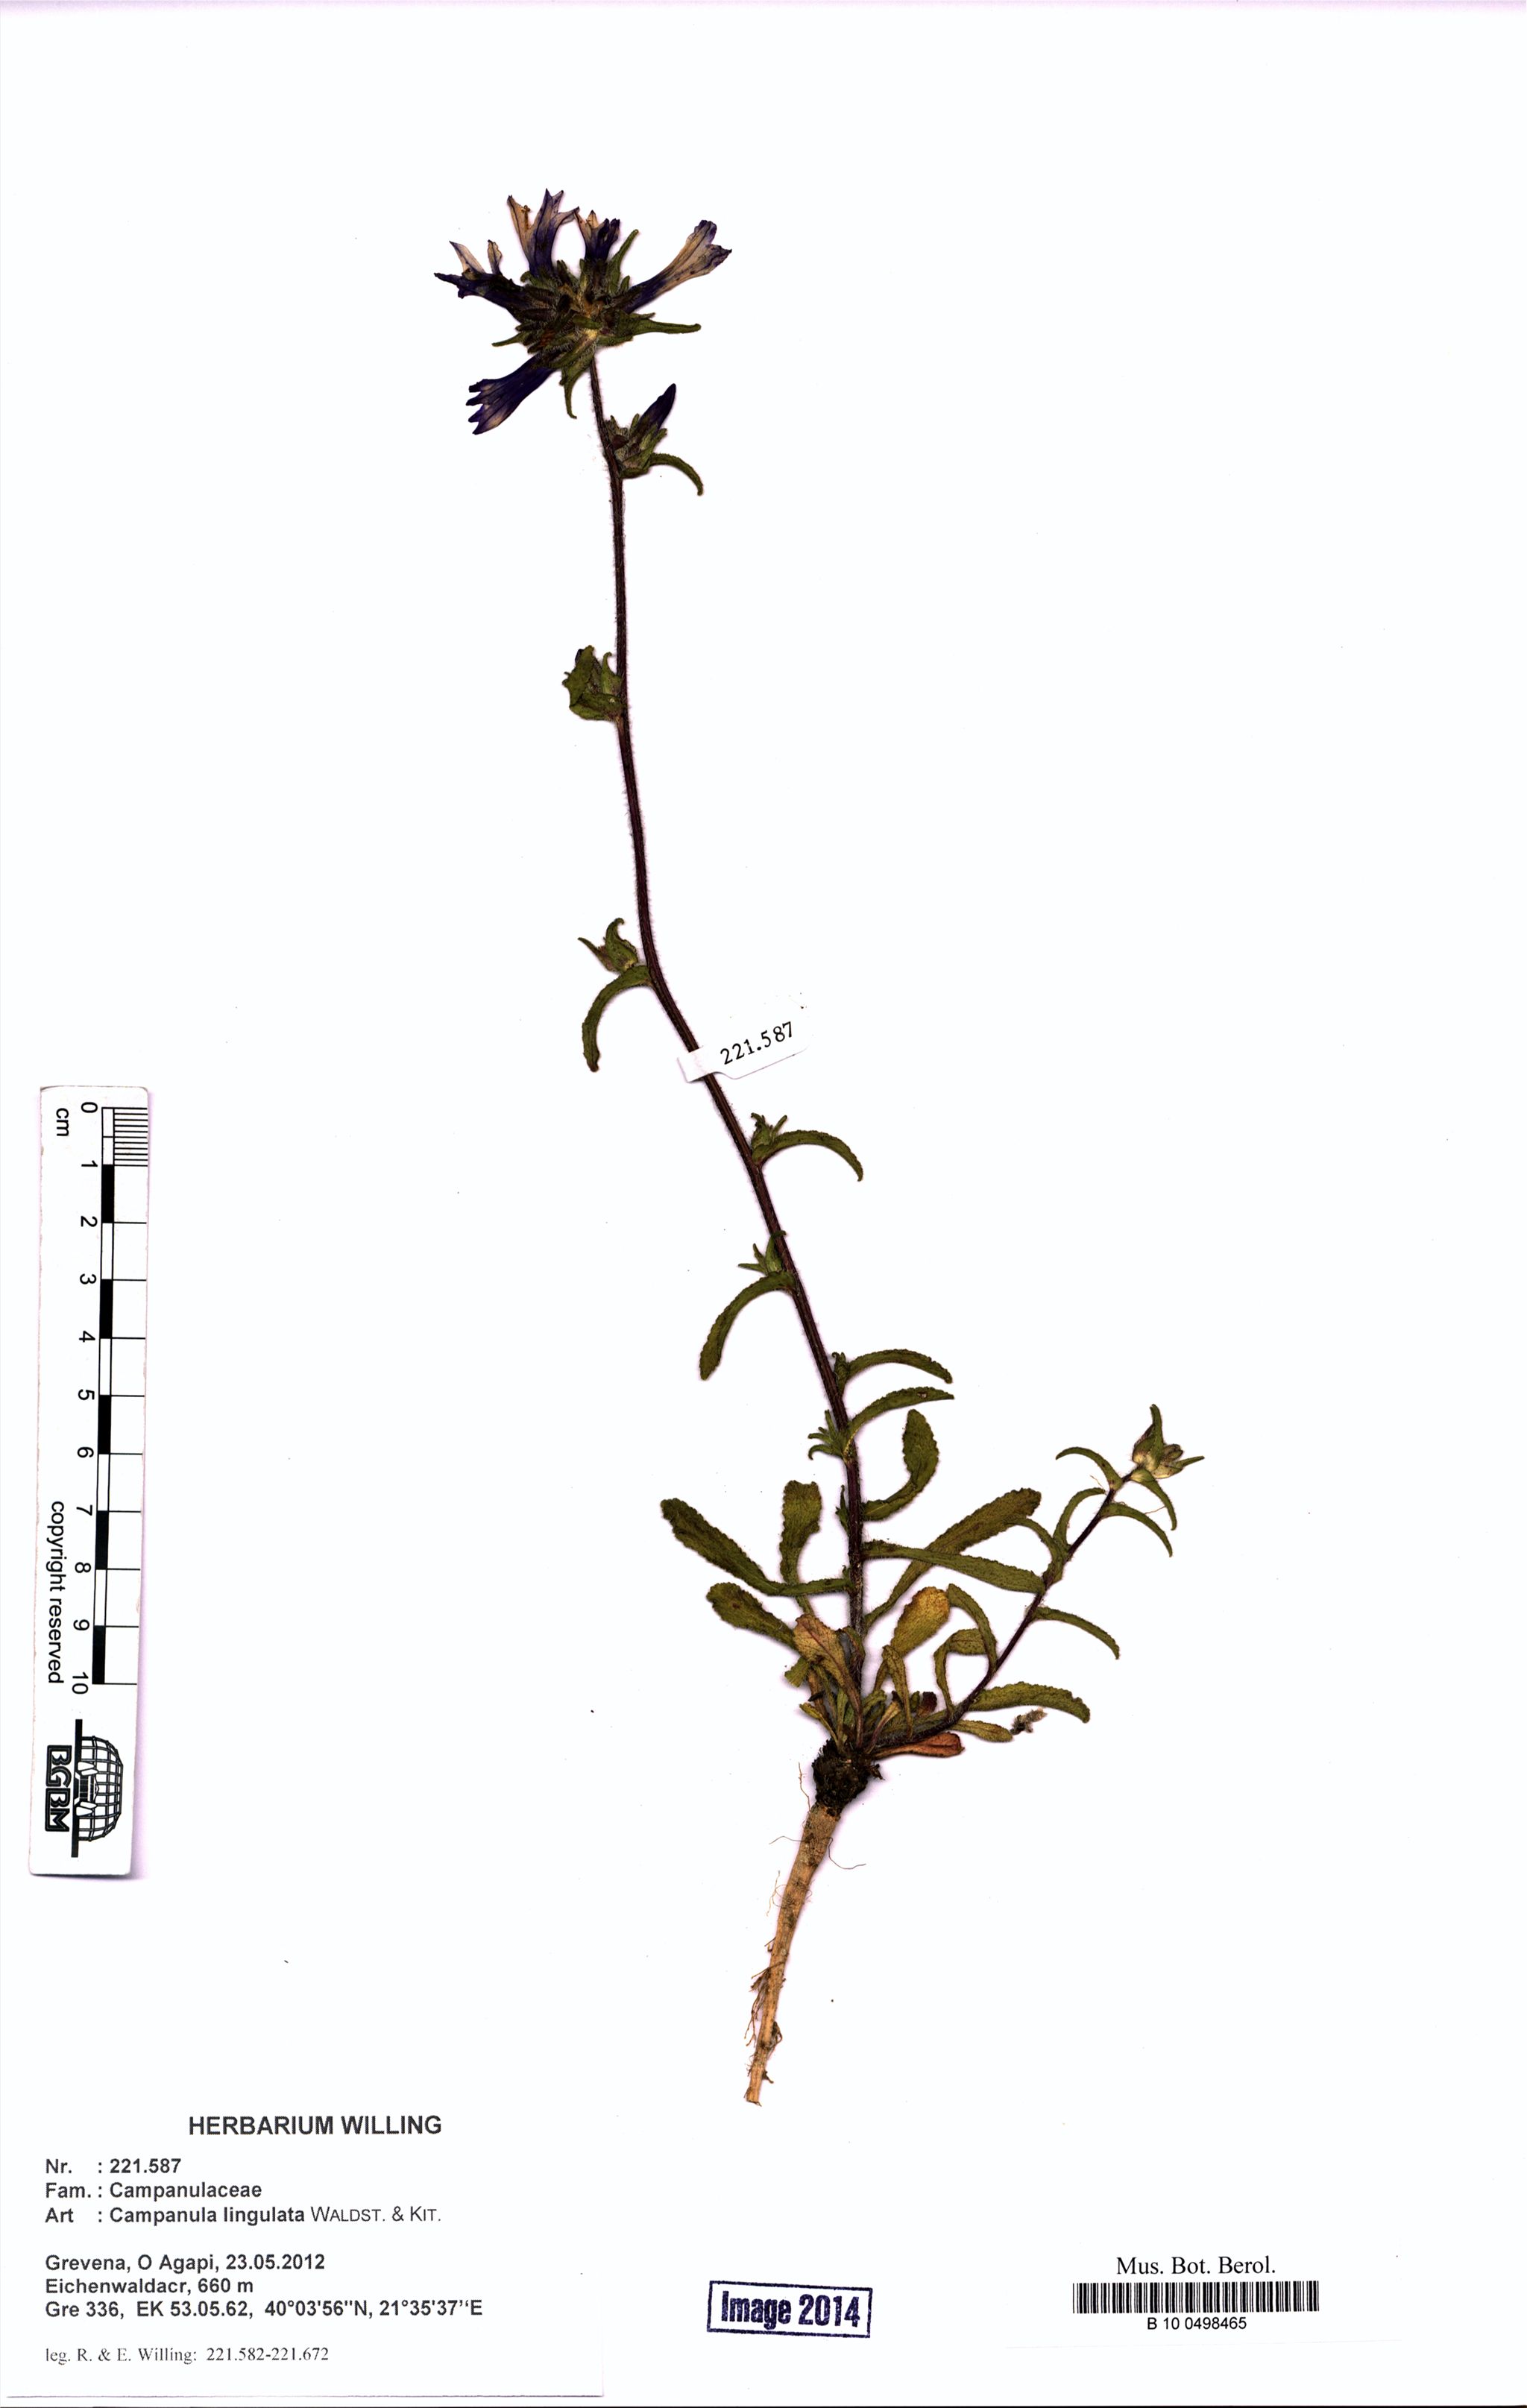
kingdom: Plantae
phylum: Tracheophyta
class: Magnoliopsida
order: Asterales
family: Campanulaceae
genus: Campanula
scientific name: Campanula lingulata
